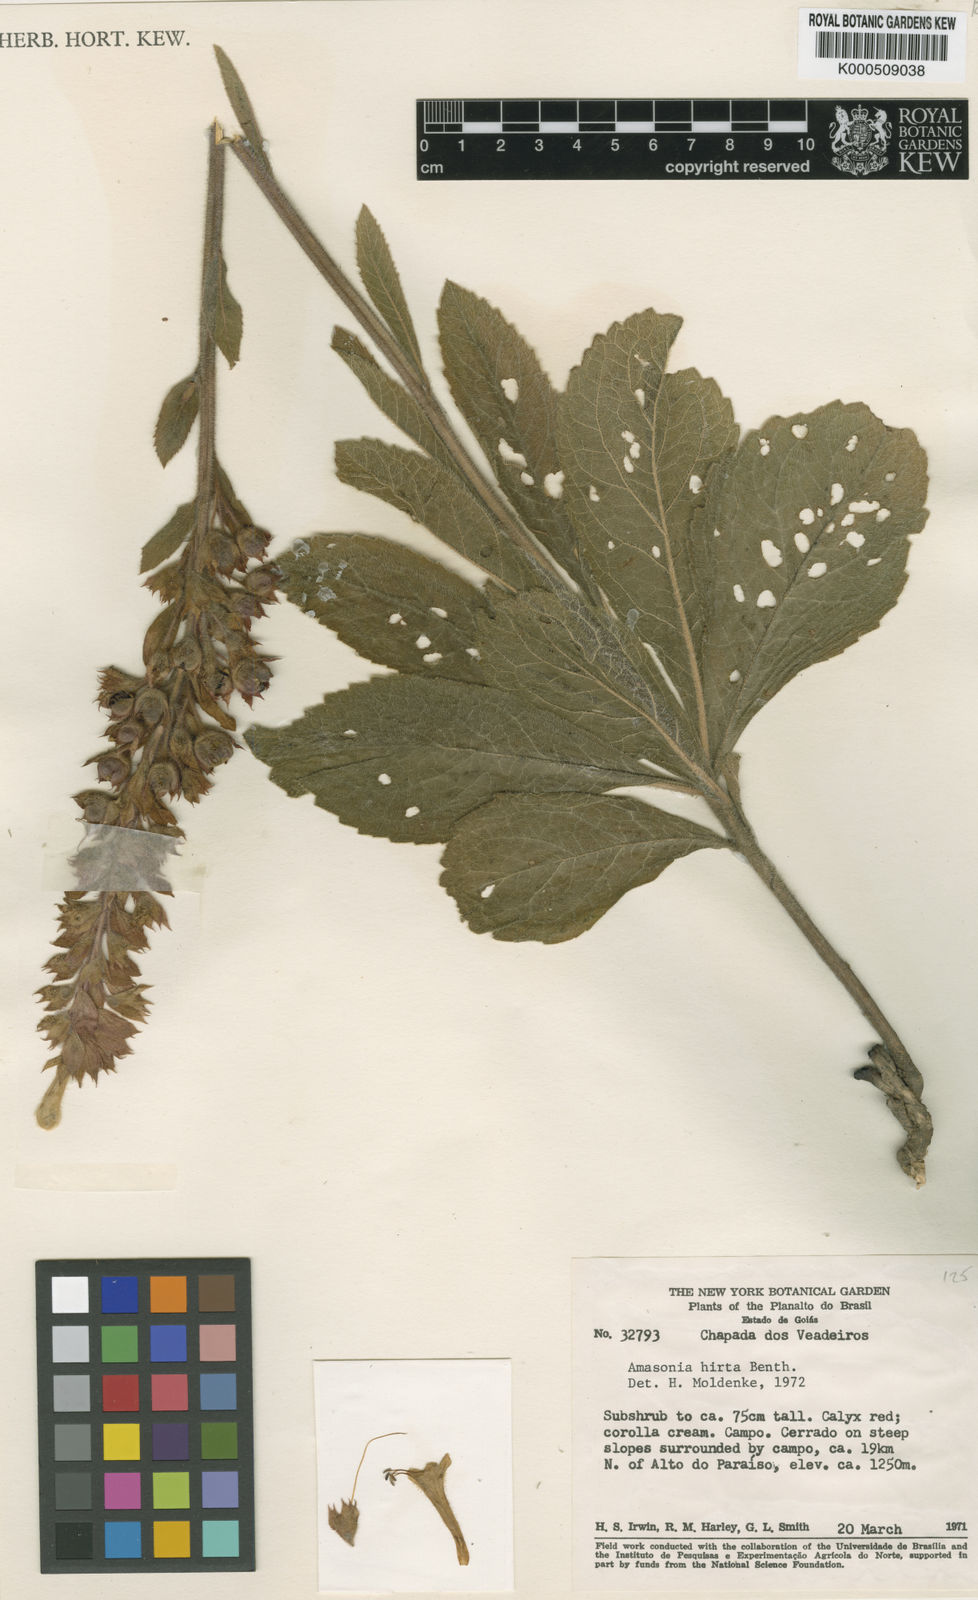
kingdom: Plantae
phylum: Tracheophyta
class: Magnoliopsida
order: Lamiales
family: Lamiaceae
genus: Amasonia
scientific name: Amasonia hirta
